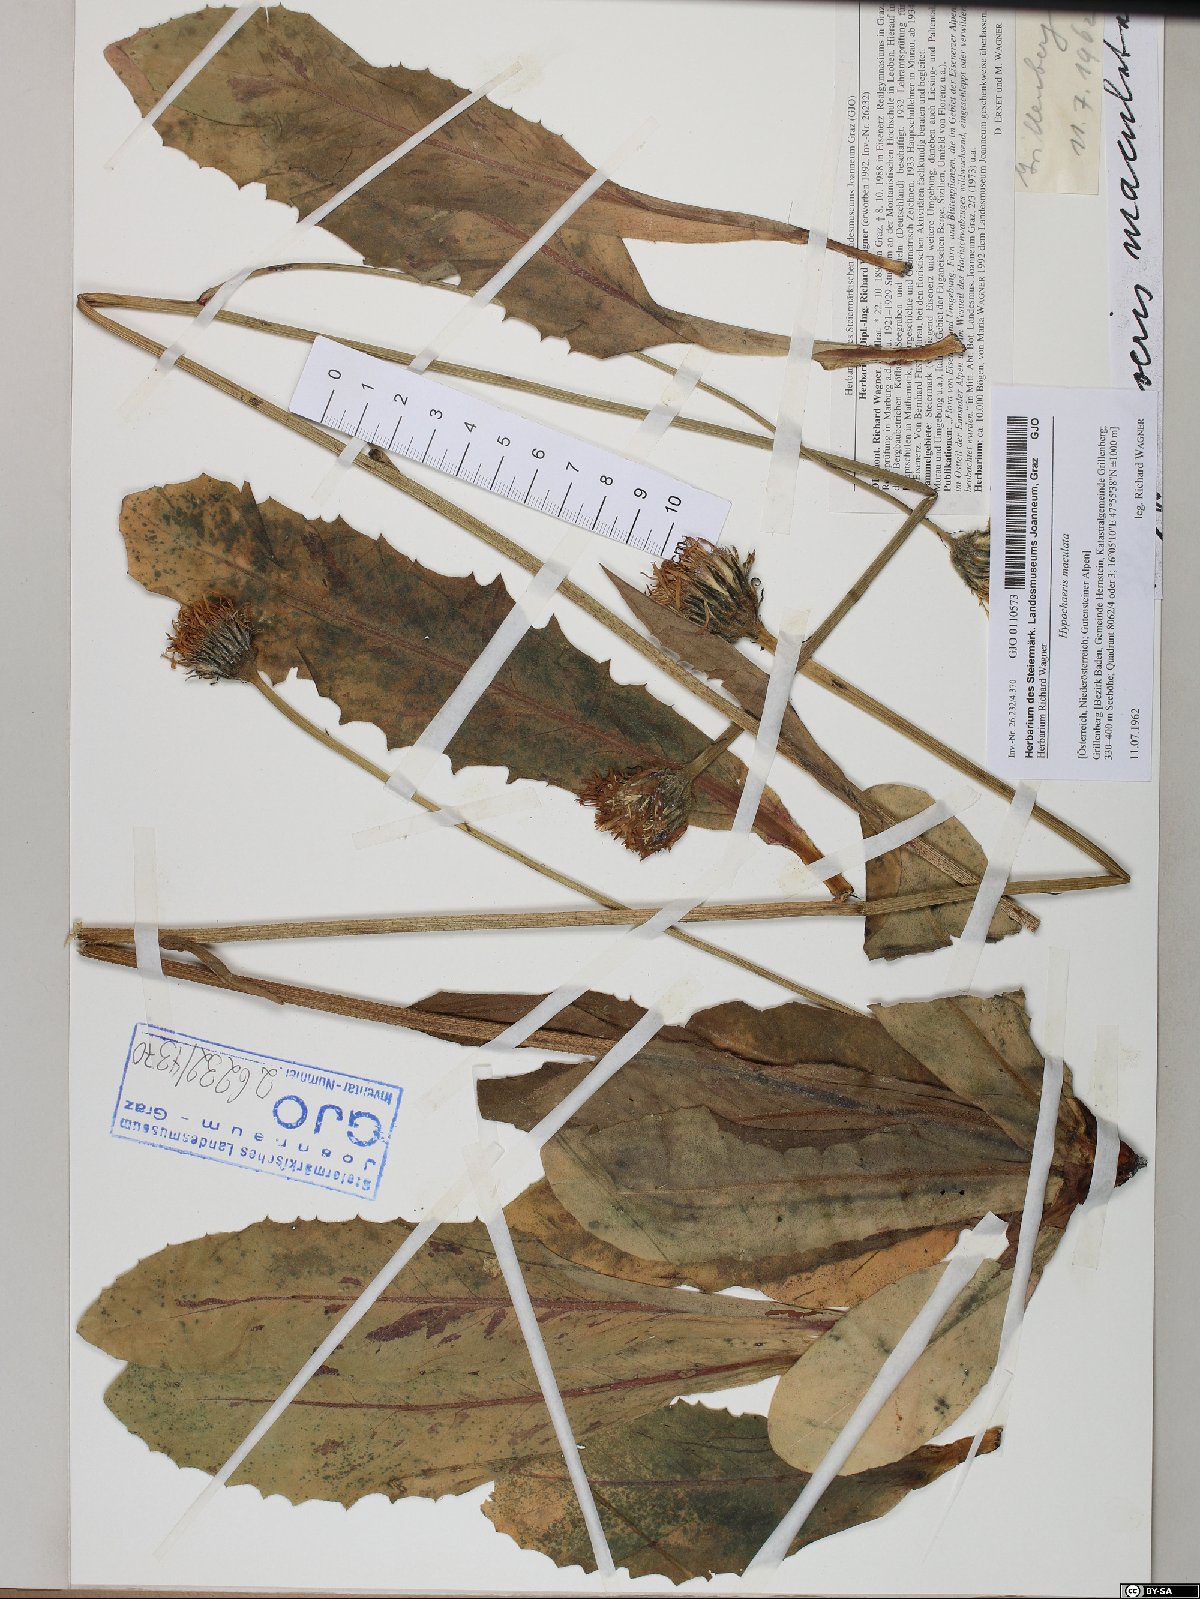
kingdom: Plantae
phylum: Tracheophyta
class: Magnoliopsida
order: Asterales
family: Asteraceae
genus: Trommsdorffia
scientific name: Trommsdorffia maculata
